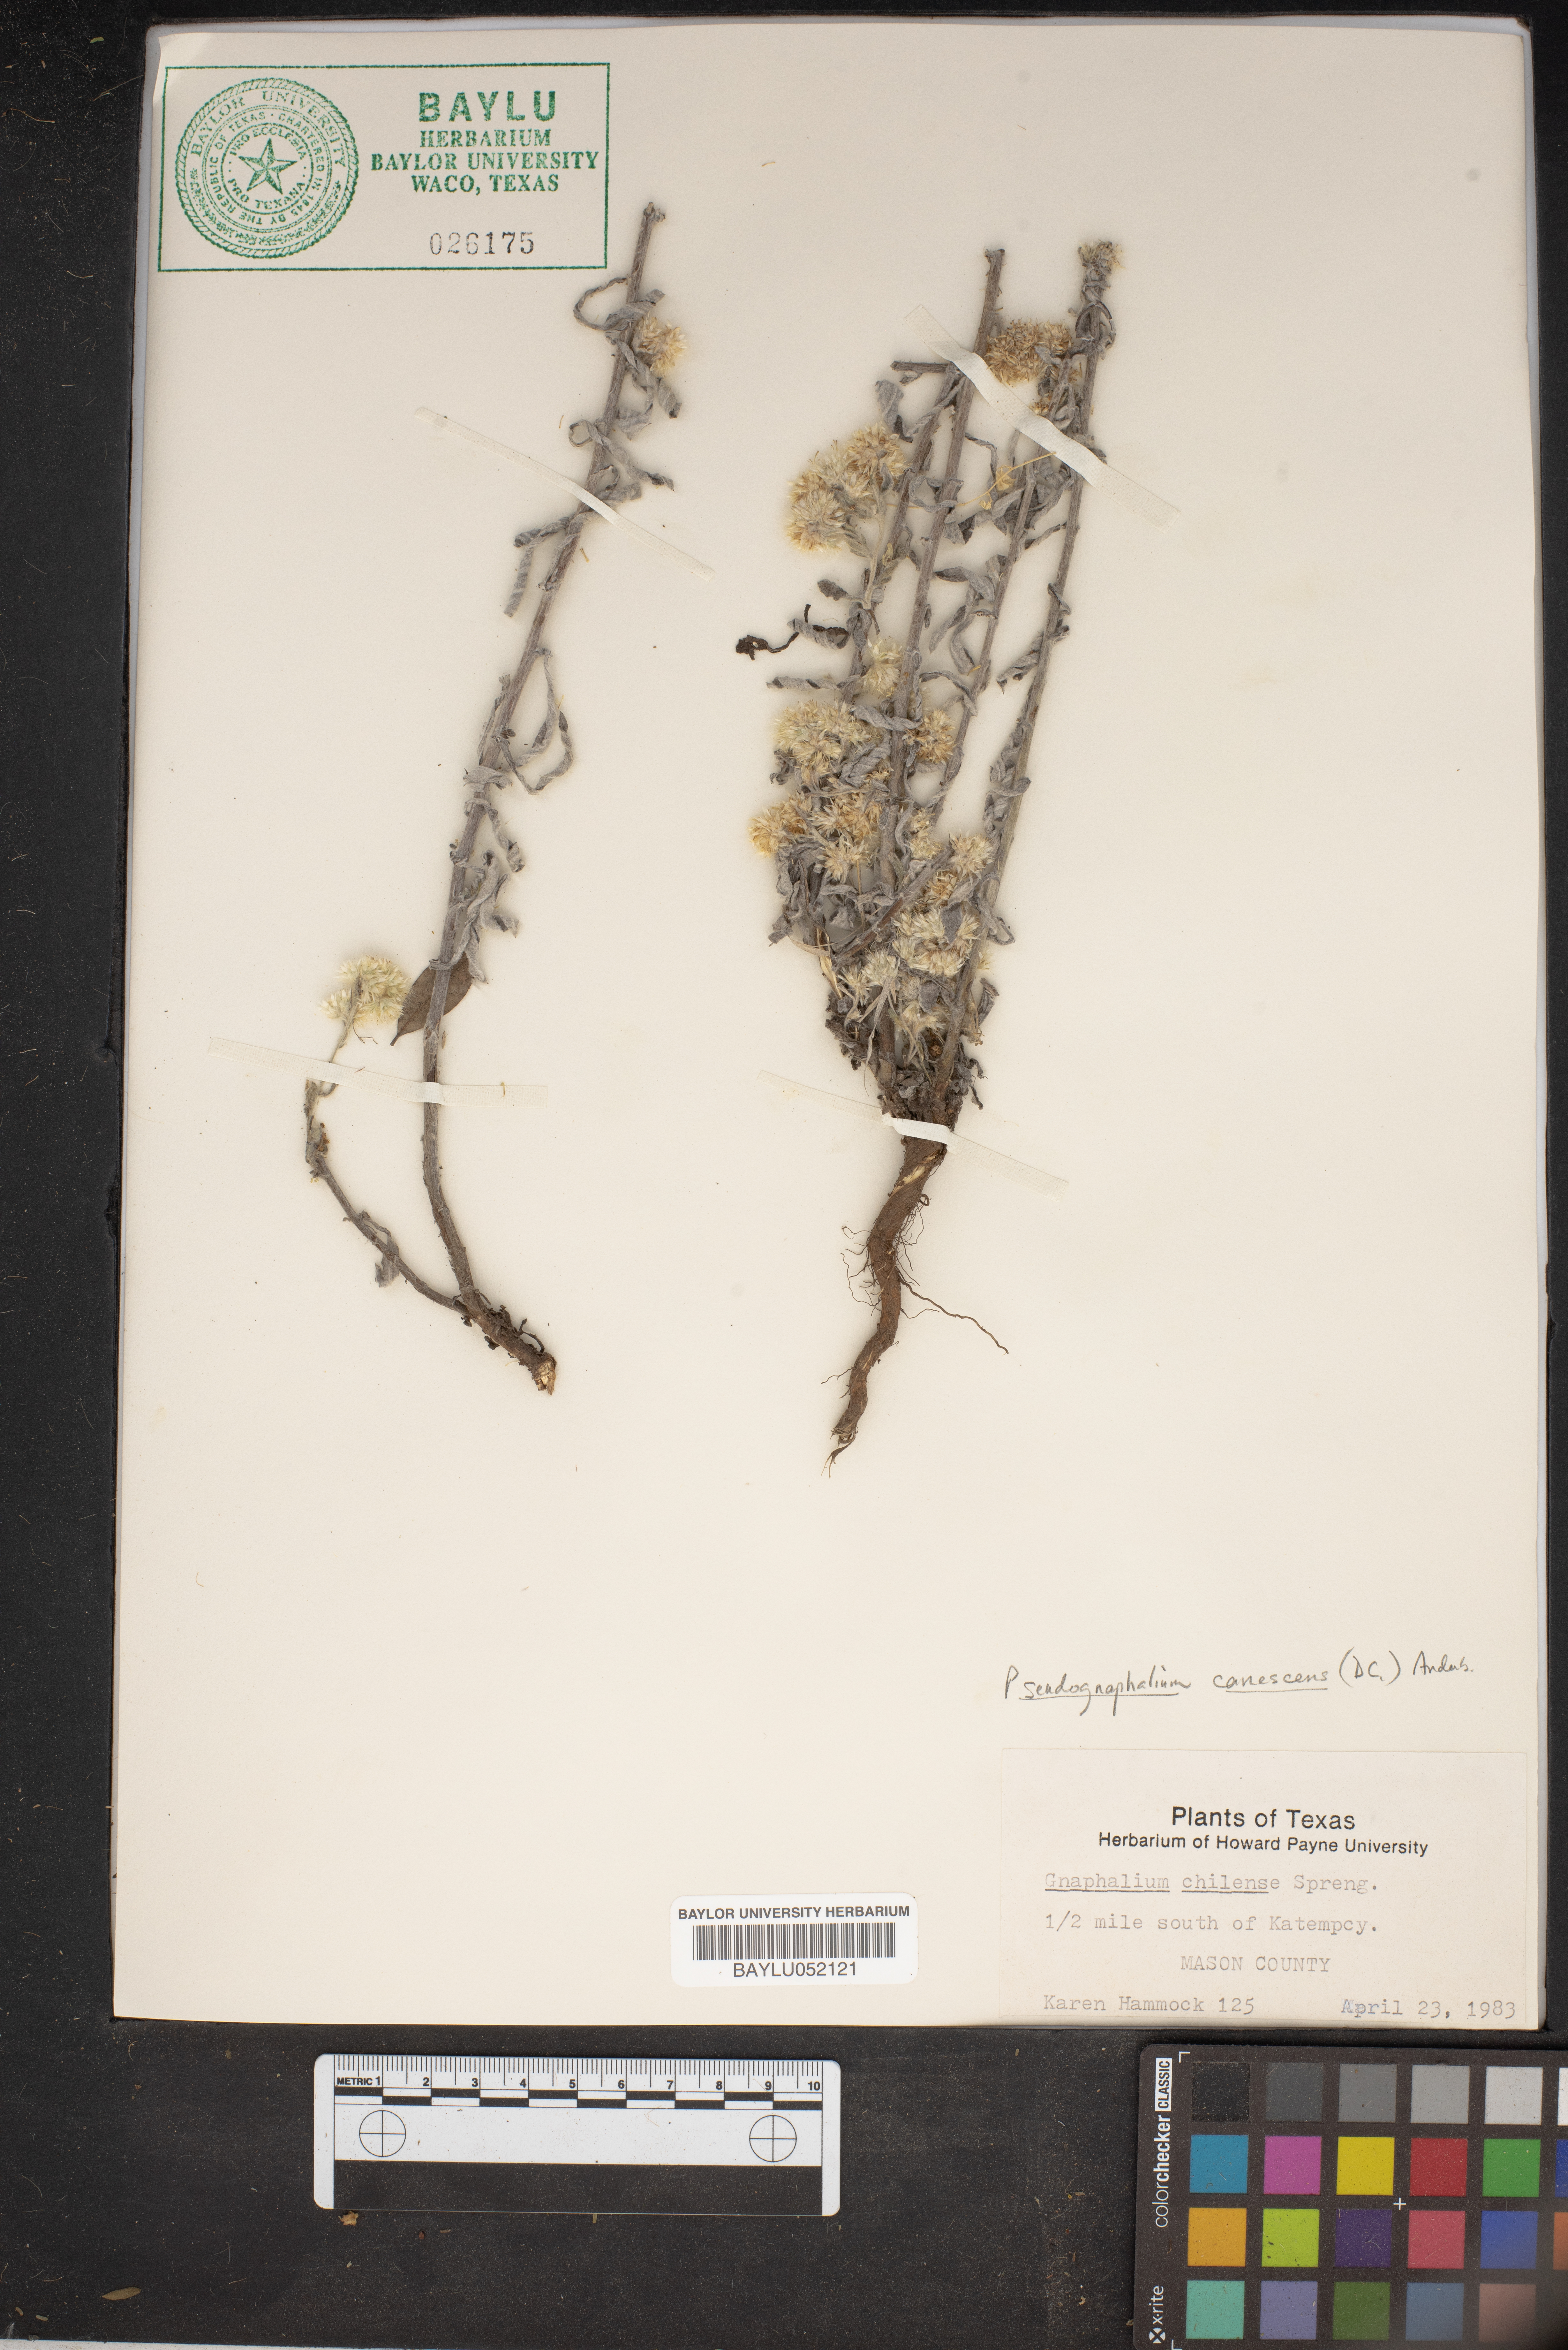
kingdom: Plantae
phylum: Tracheophyta
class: Magnoliopsida
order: Asterales
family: Asteraceae
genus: Pseudognaphalium
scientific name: Pseudognaphalium canescens
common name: Wright's rabbit-tobacco
